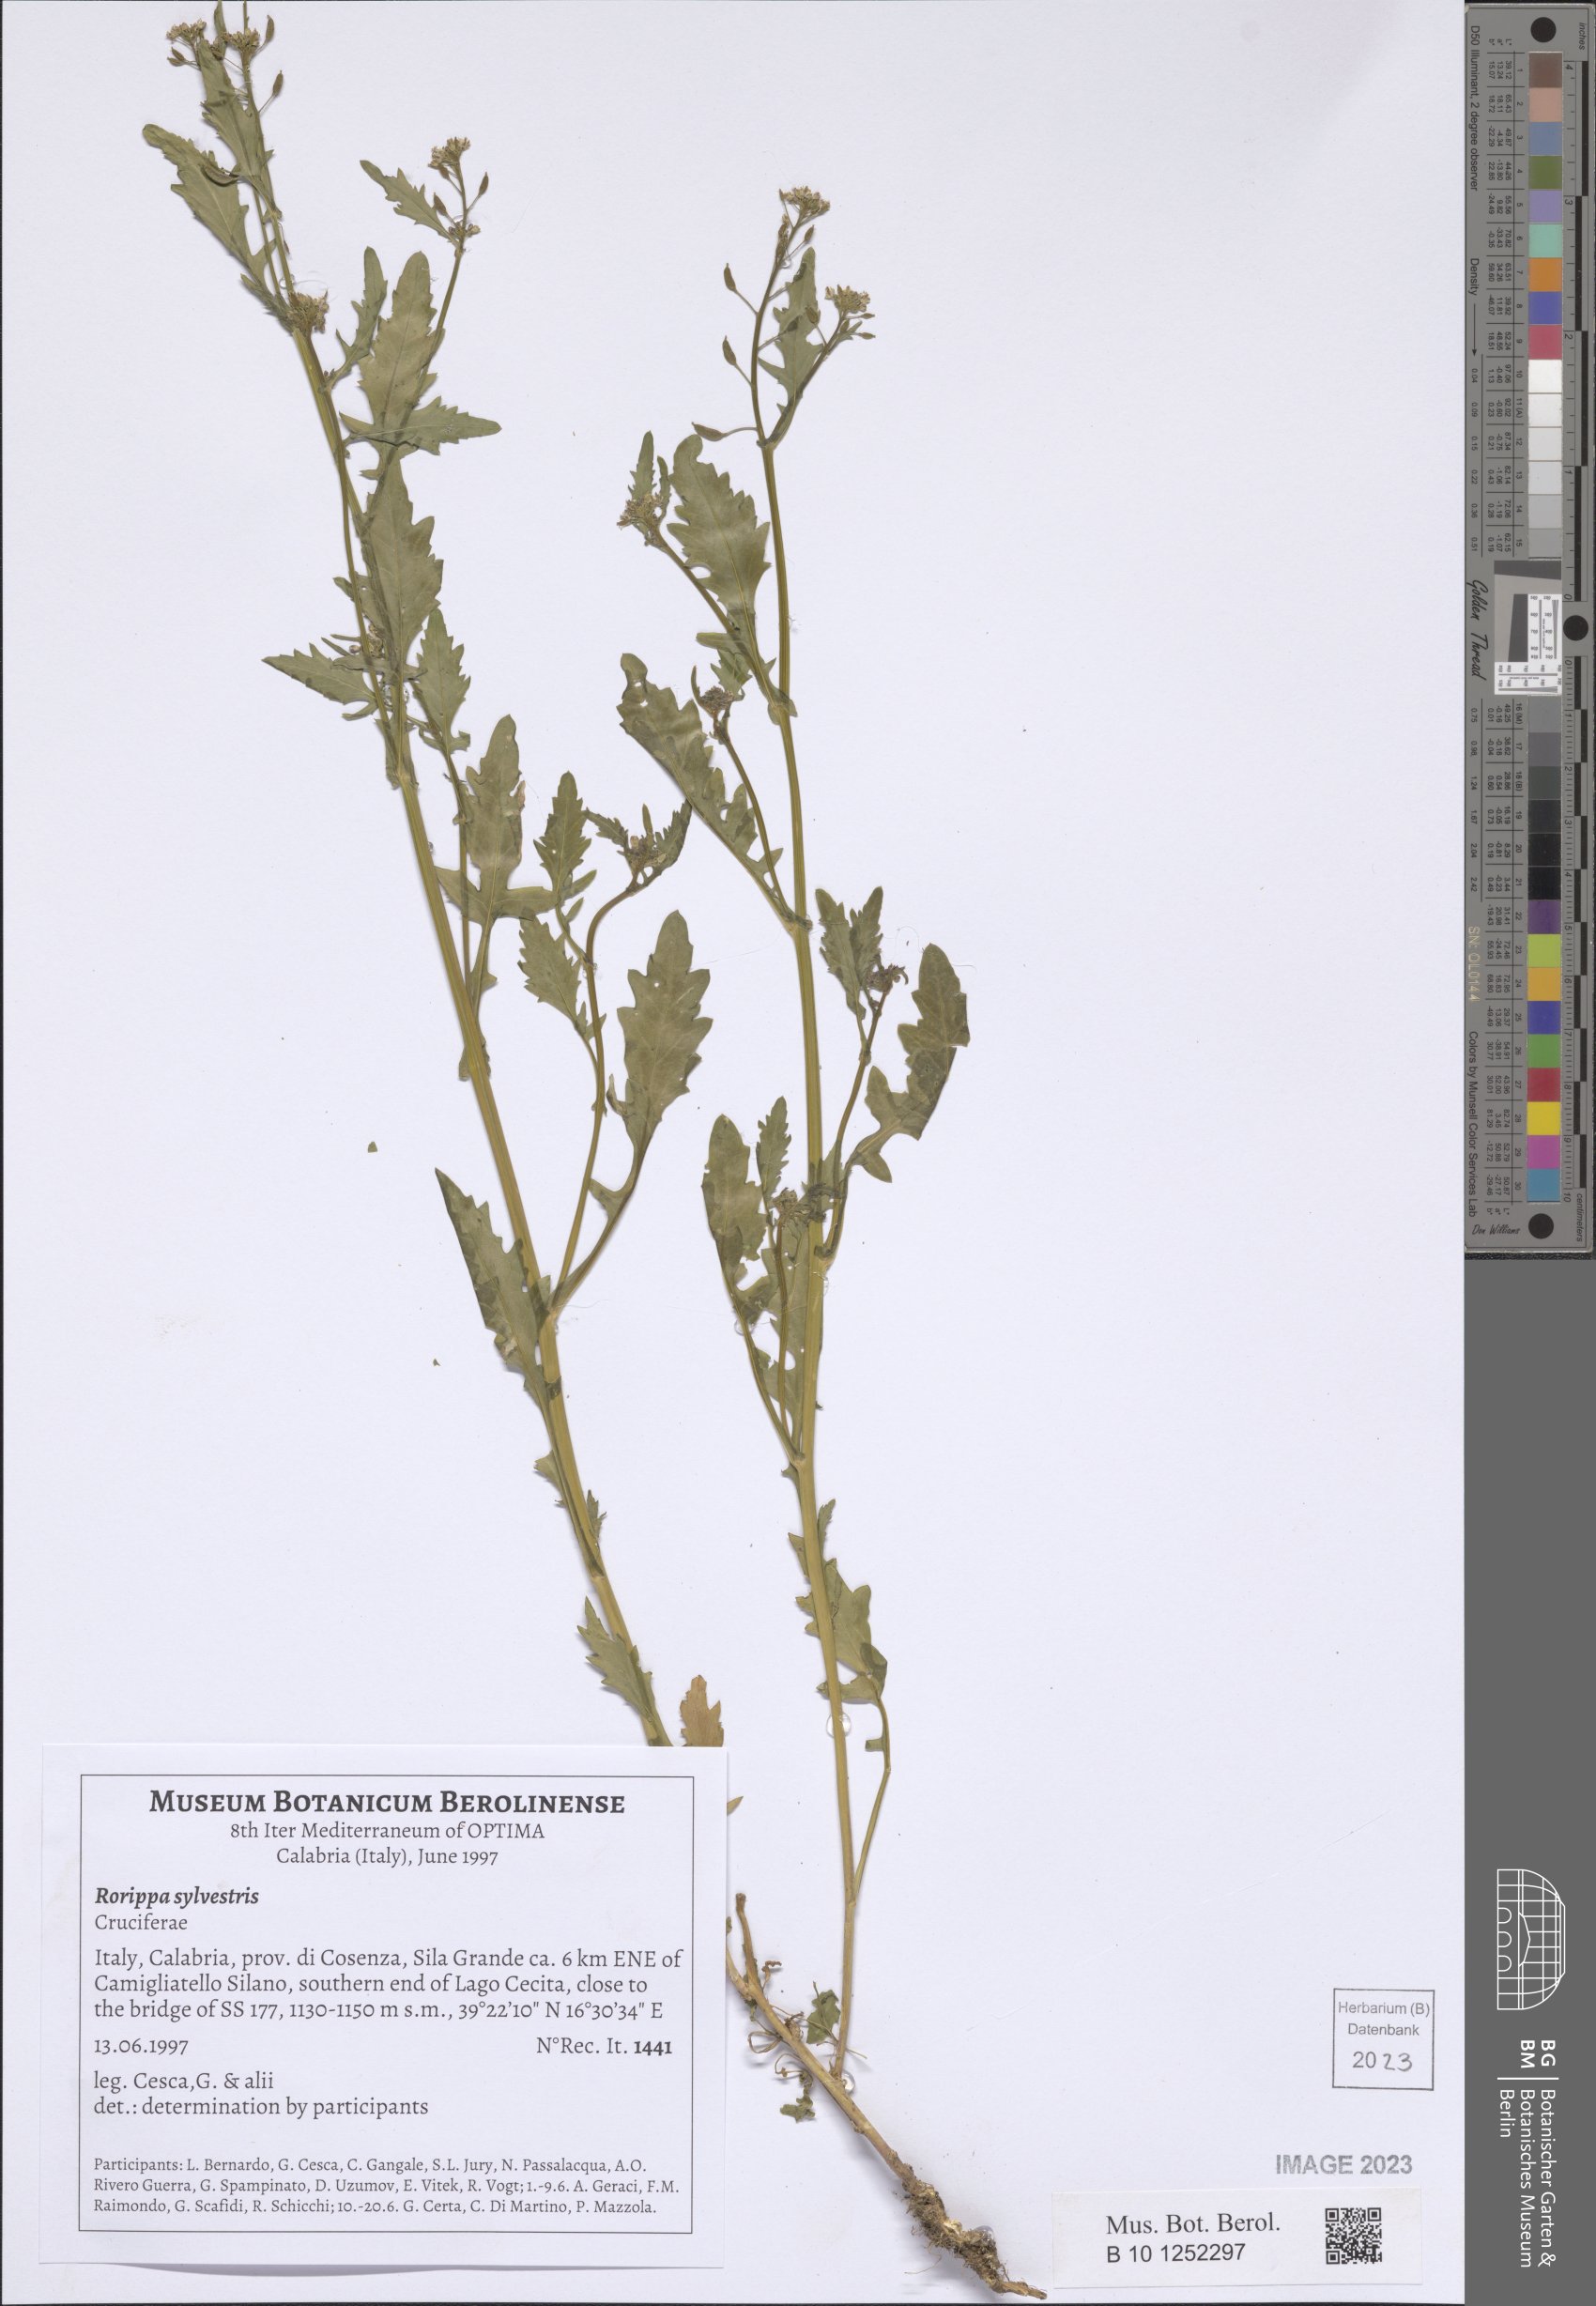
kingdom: Plantae
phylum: Tracheophyta
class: Magnoliopsida
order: Brassicales
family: Brassicaceae
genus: Rorippa
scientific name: Rorippa sylvestris
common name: Creeping yellowcress
